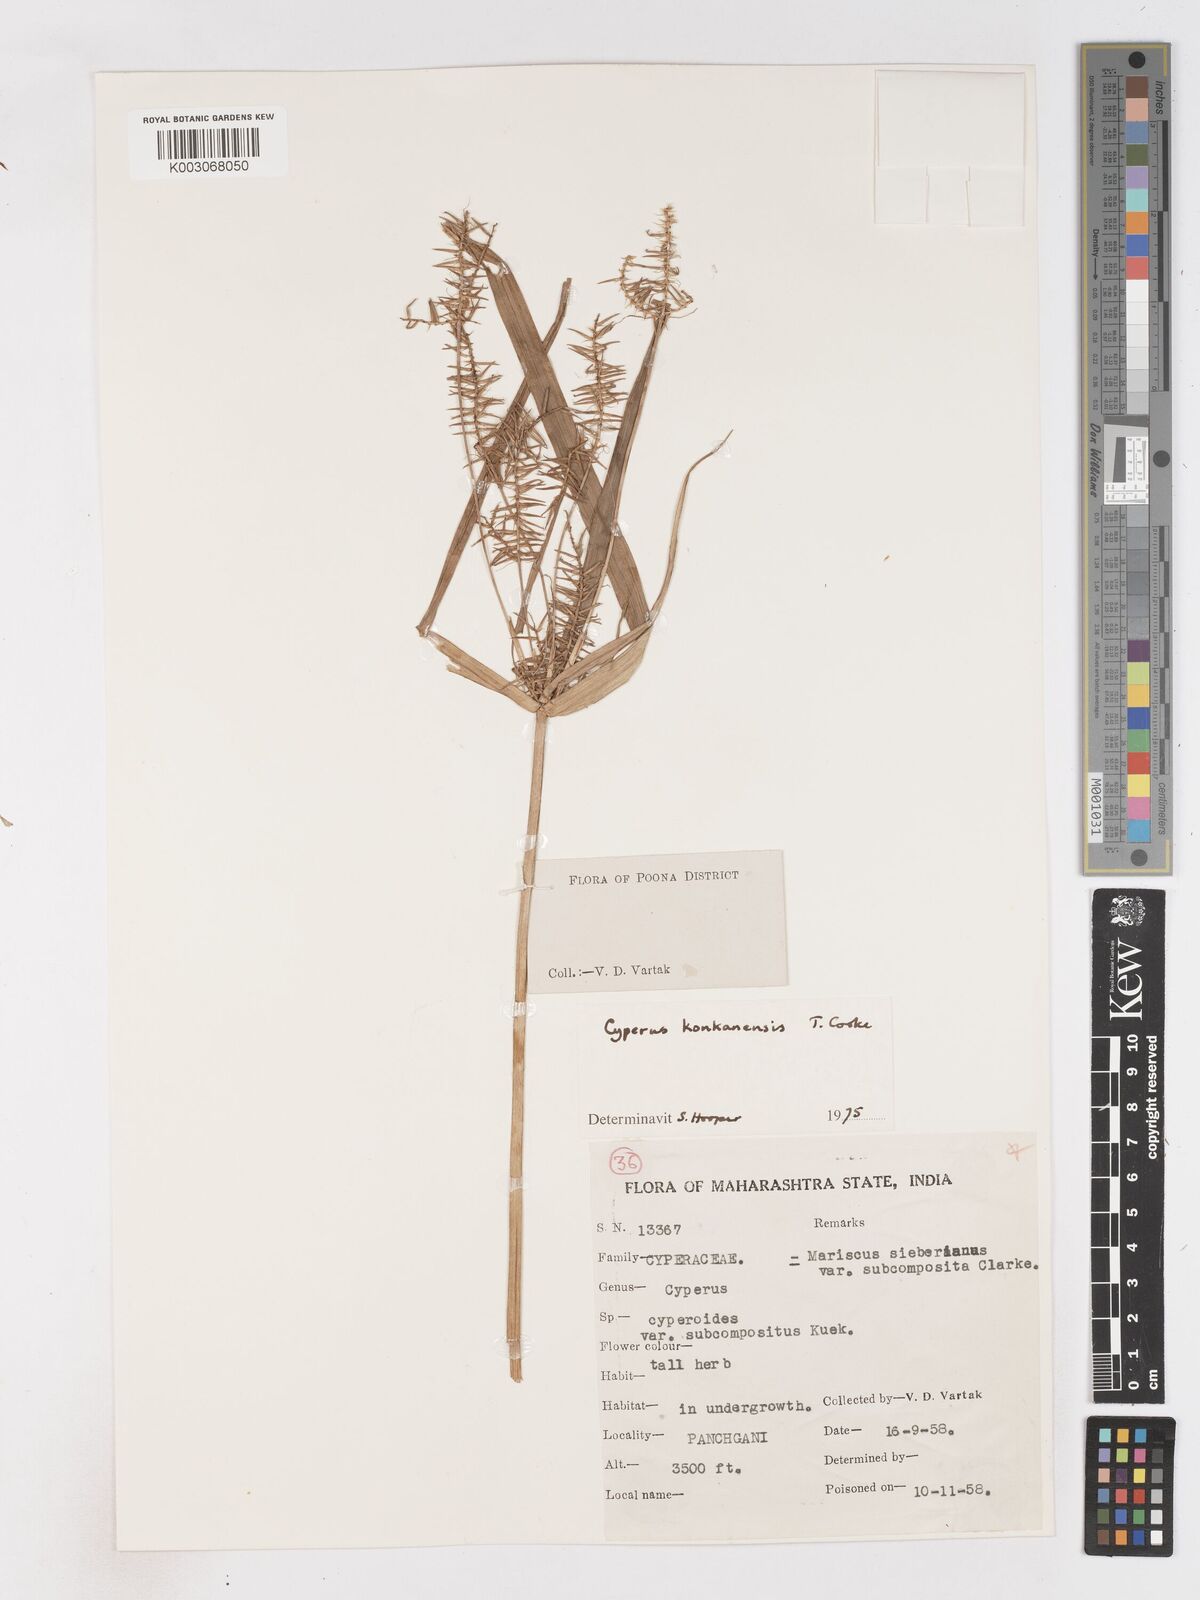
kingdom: Plantae
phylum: Tracheophyta
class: Liliopsida
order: Poales
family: Cyperaceae
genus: Cyperus
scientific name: Cyperus kanarensis
